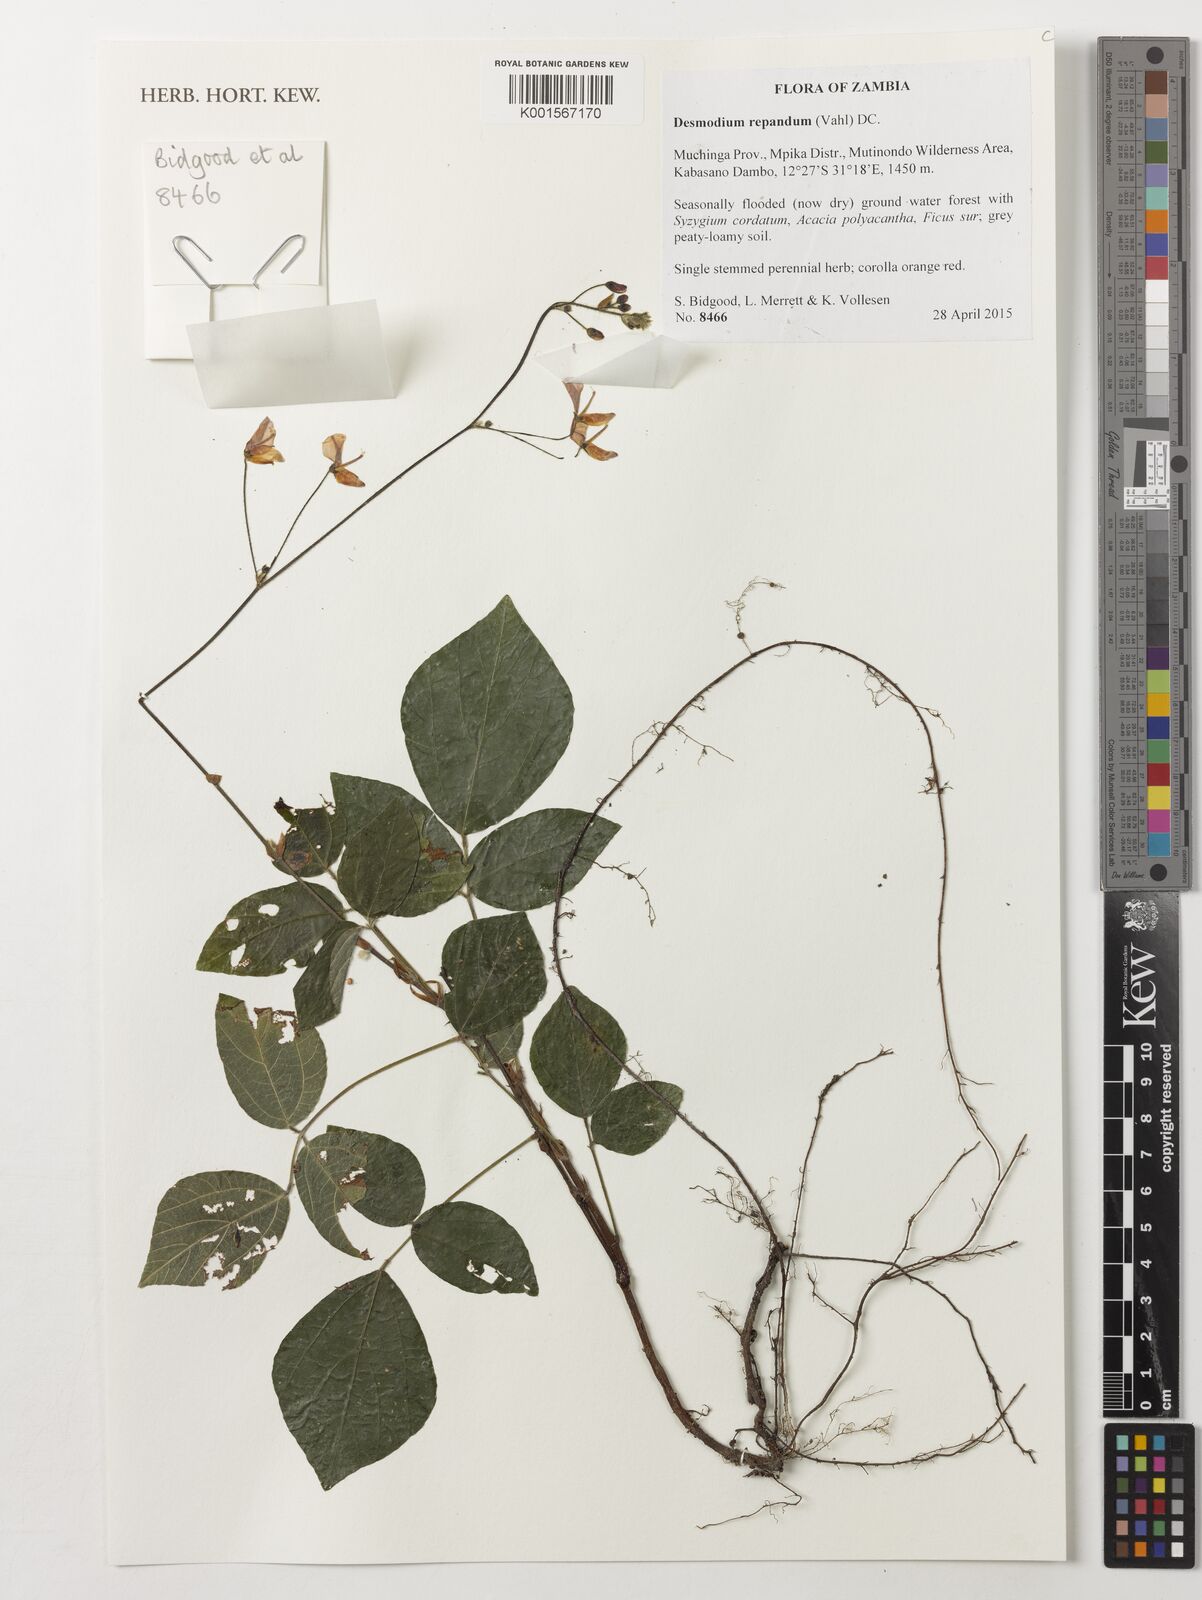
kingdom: Plantae
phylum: Tracheophyta
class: Magnoliopsida
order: Fabales
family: Fabaceae
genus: Hylodesmum
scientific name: Hylodesmum repandum
